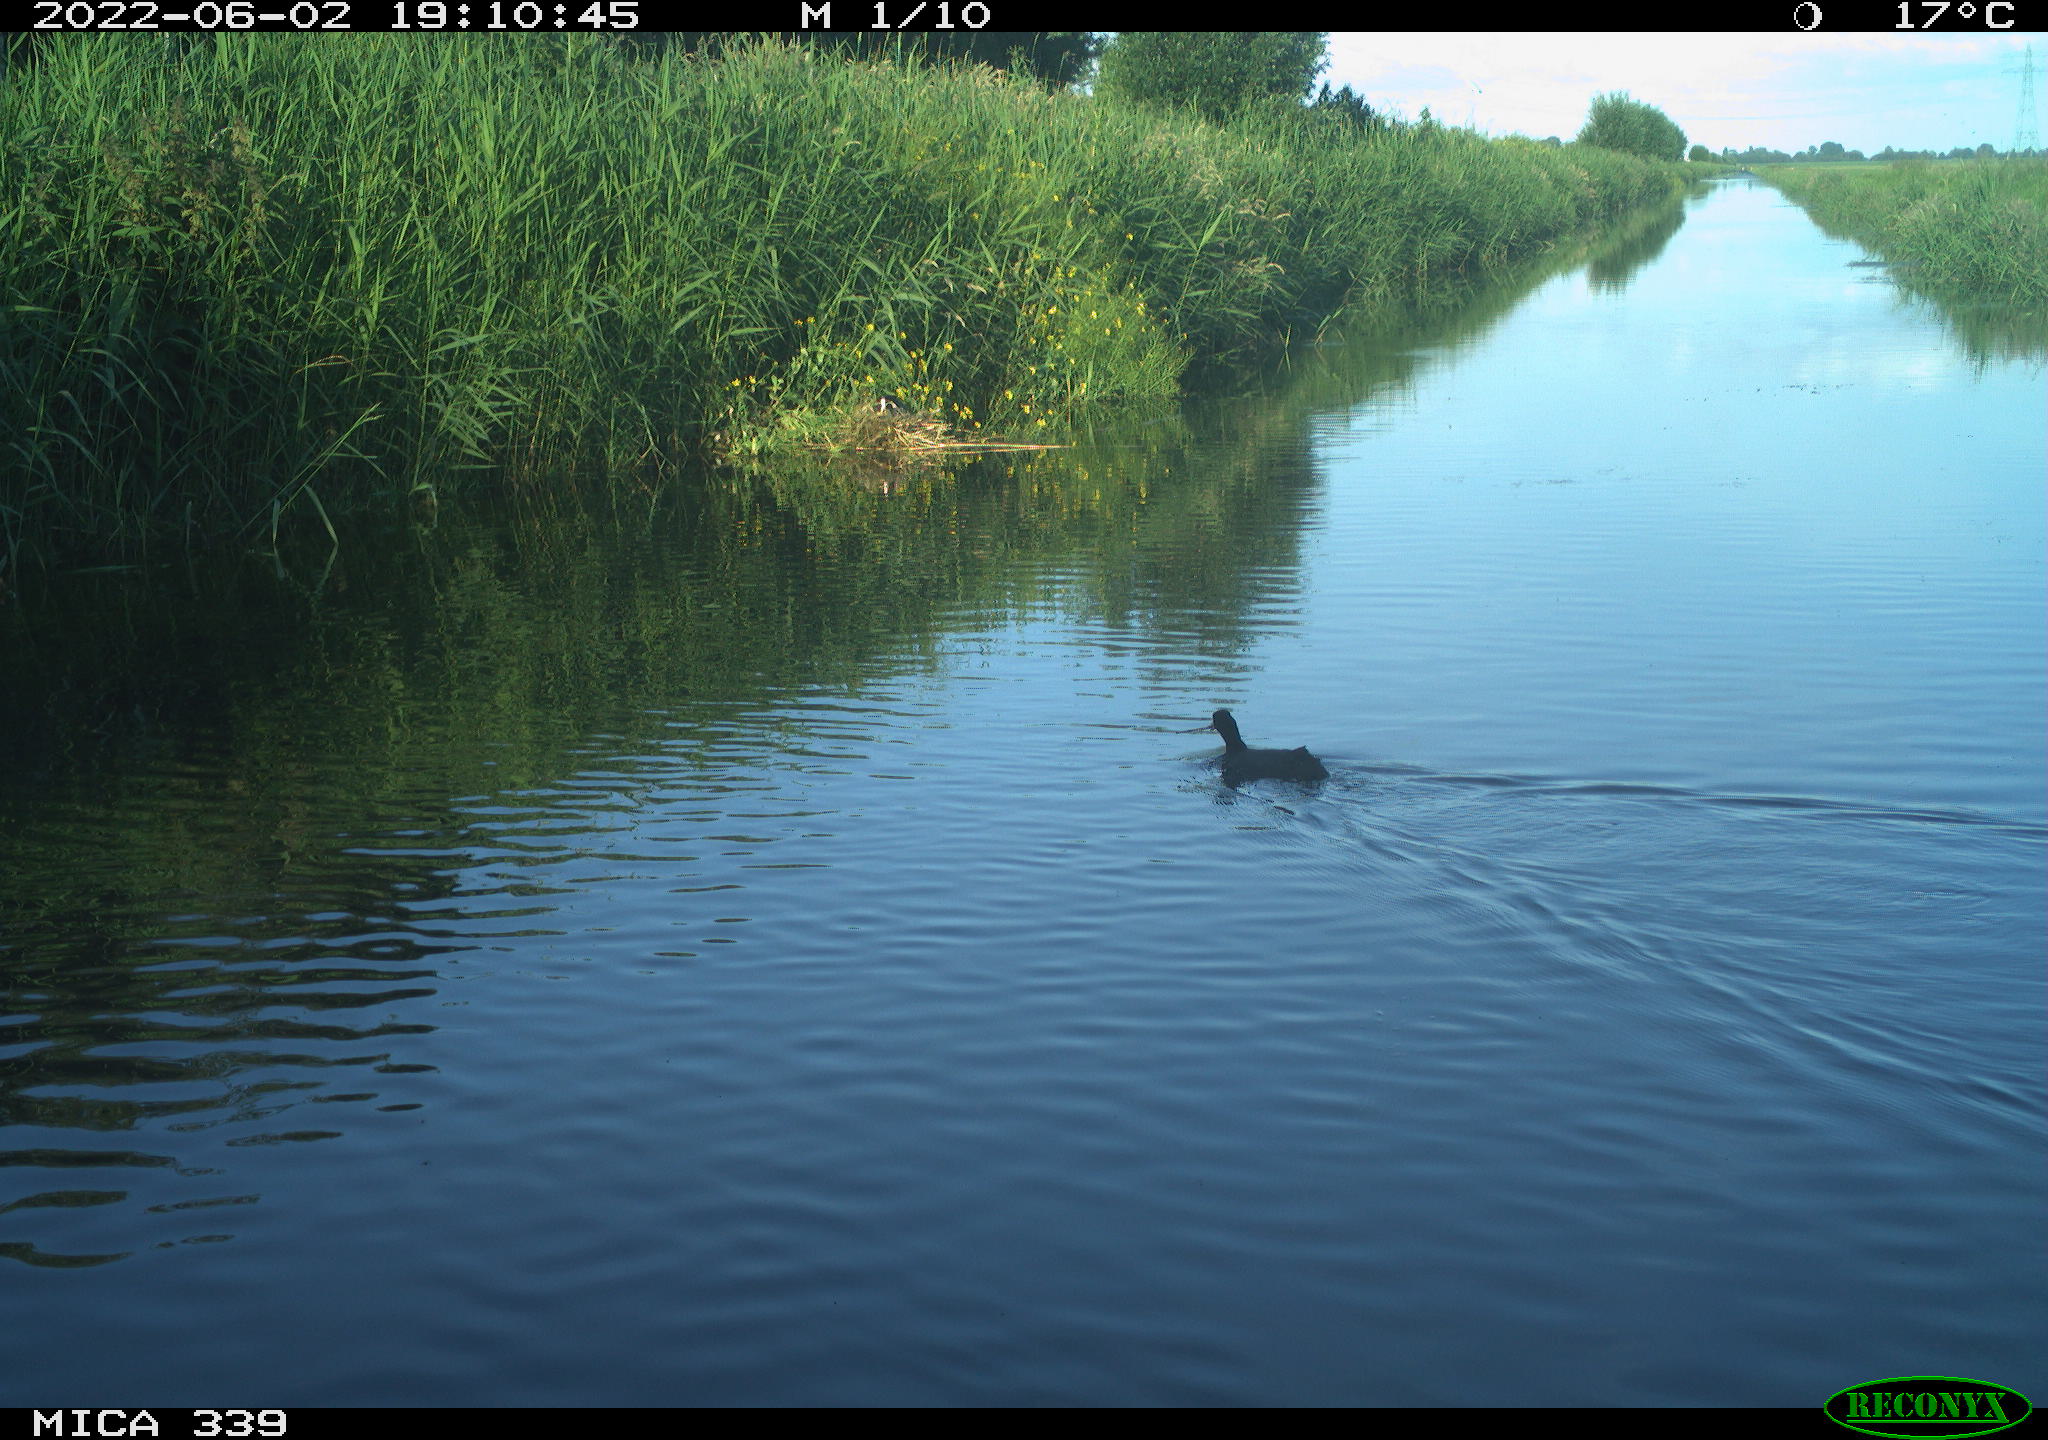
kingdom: Animalia
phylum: Chordata
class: Aves
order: Gruiformes
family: Rallidae
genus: Fulica
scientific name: Fulica atra
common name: Eurasian coot
